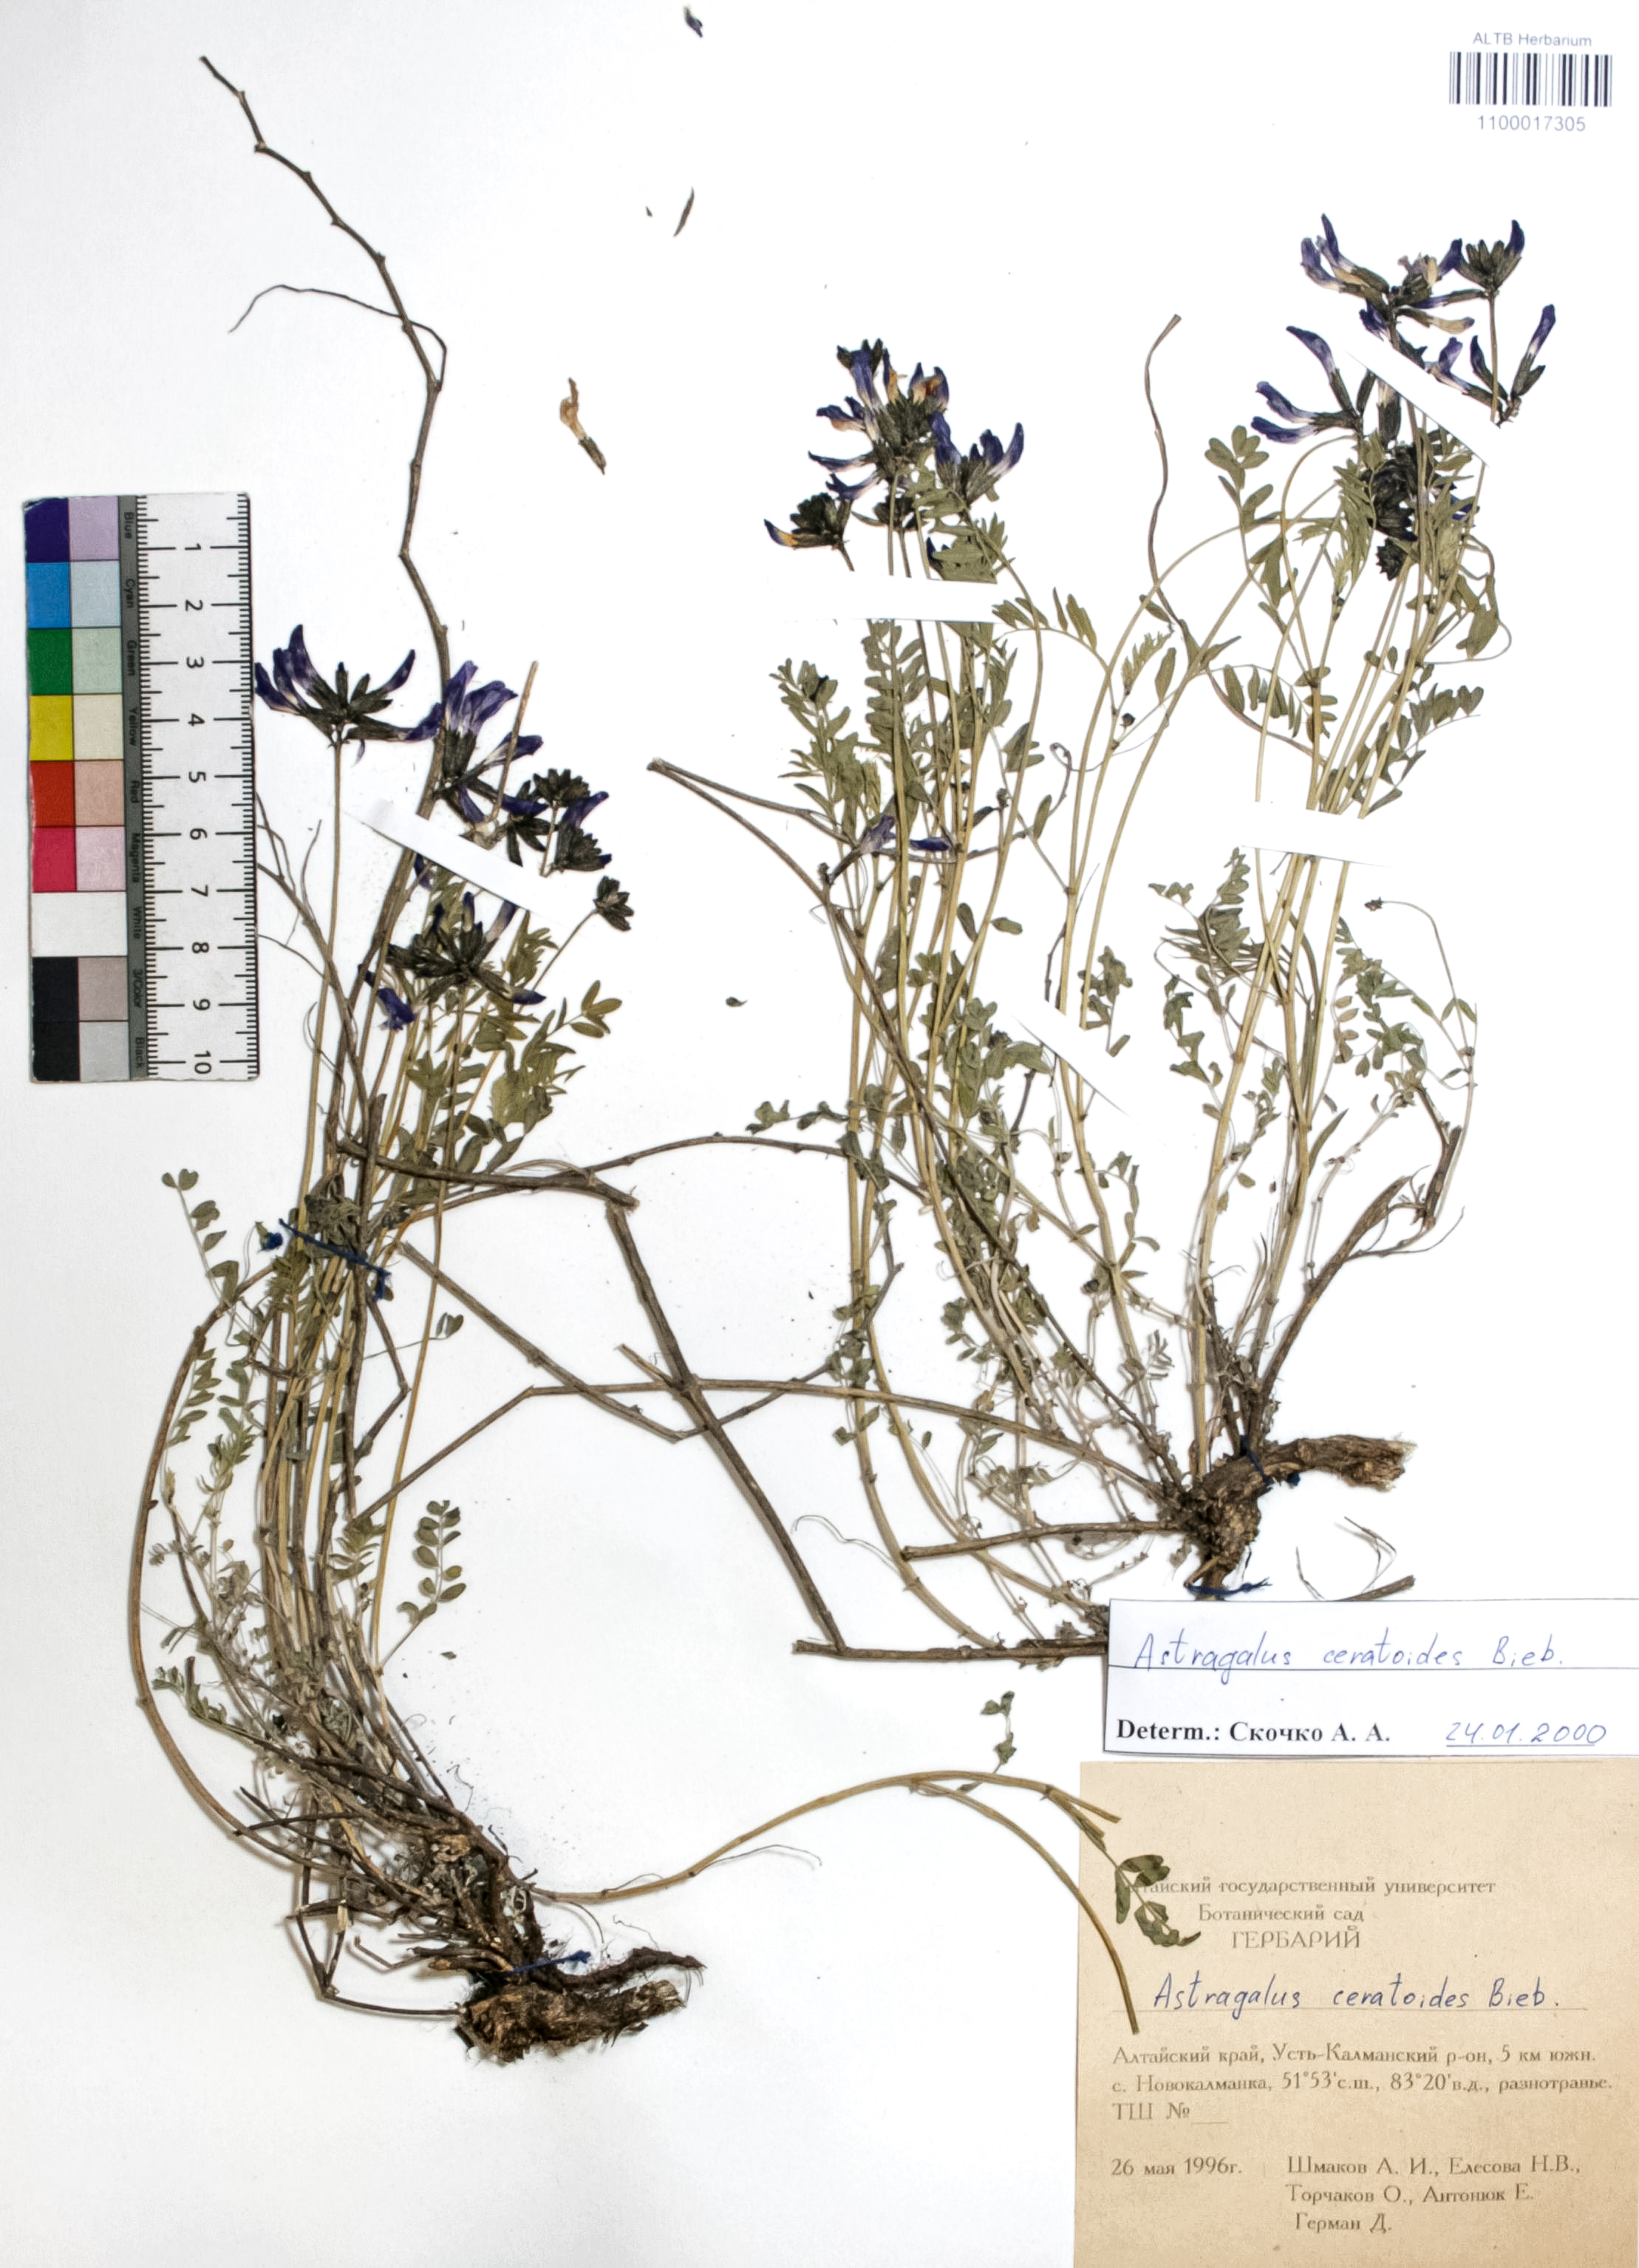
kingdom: Plantae
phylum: Tracheophyta
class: Magnoliopsida
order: Fabales
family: Fabaceae
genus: Astragalus
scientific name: Astragalus ceratoides
